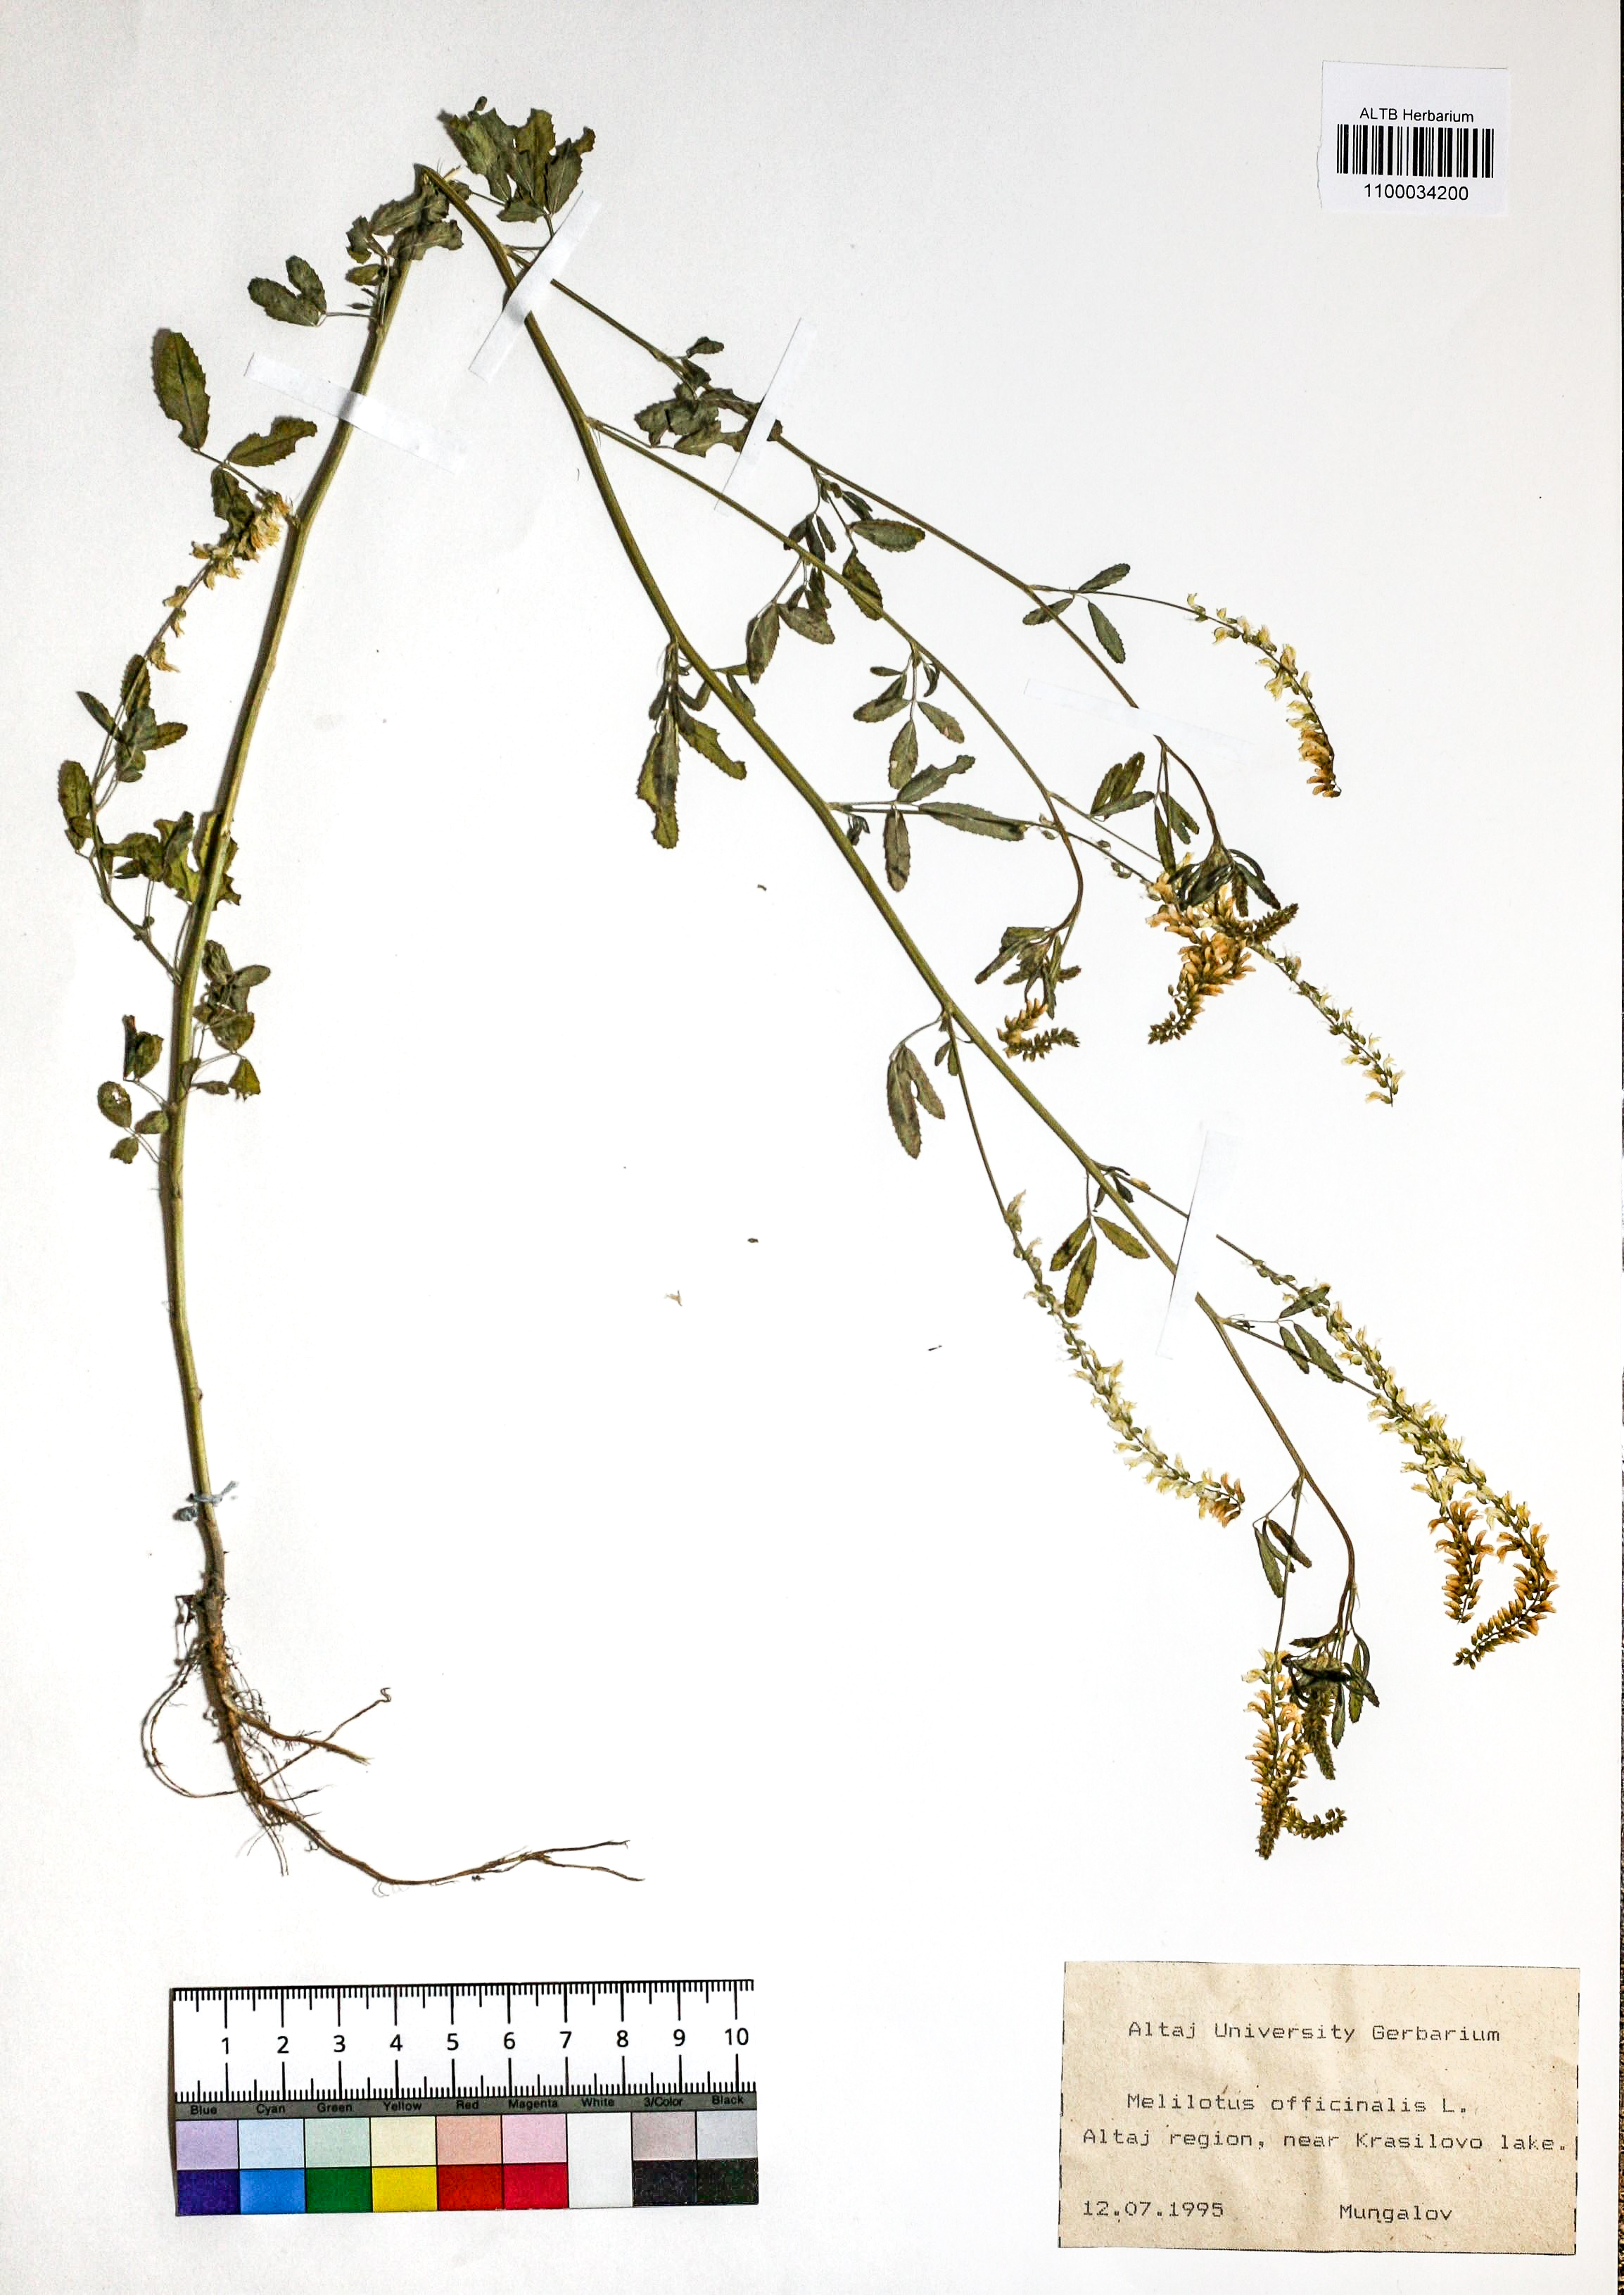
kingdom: Plantae
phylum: Tracheophyta
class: Magnoliopsida
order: Fabales
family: Fabaceae
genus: Melilotus
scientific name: Melilotus officinalis
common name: Sweetclover
